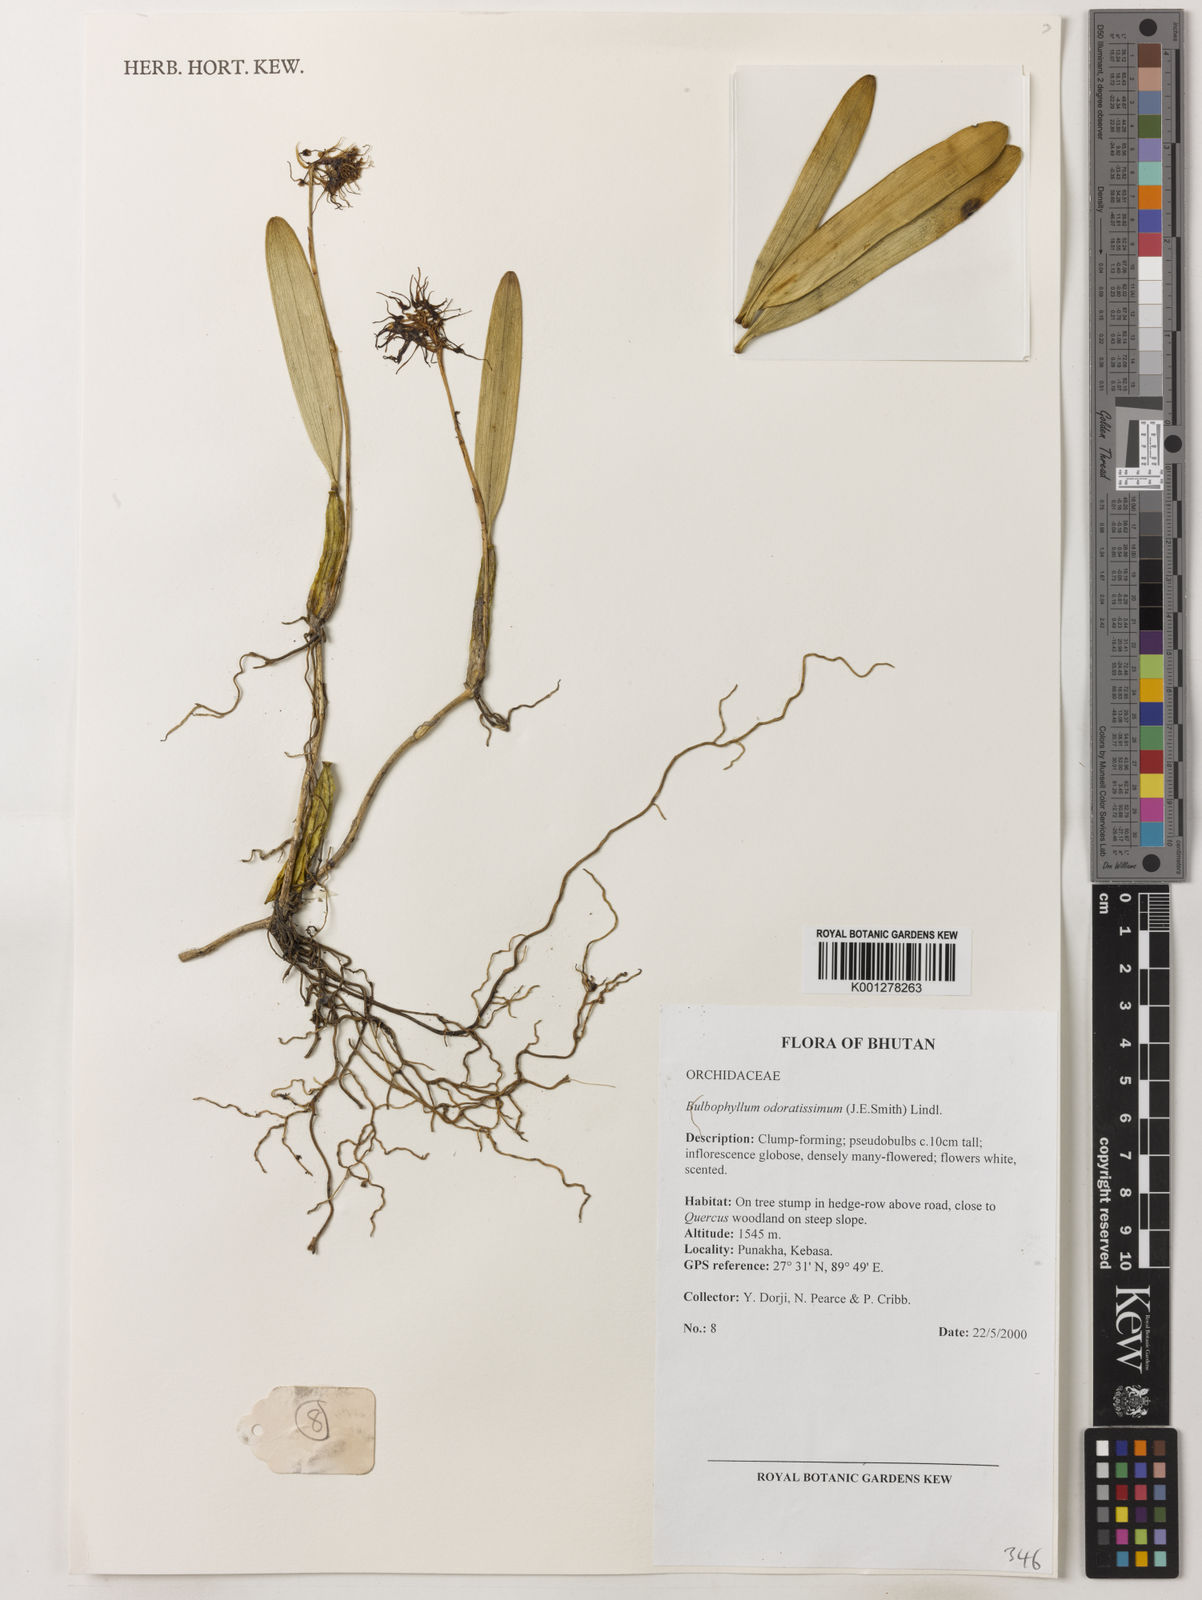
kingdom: Plantae
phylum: Tracheophyta
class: Liliopsida
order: Asparagales
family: Orchidaceae
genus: Bulbophyllum
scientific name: Bulbophyllum
